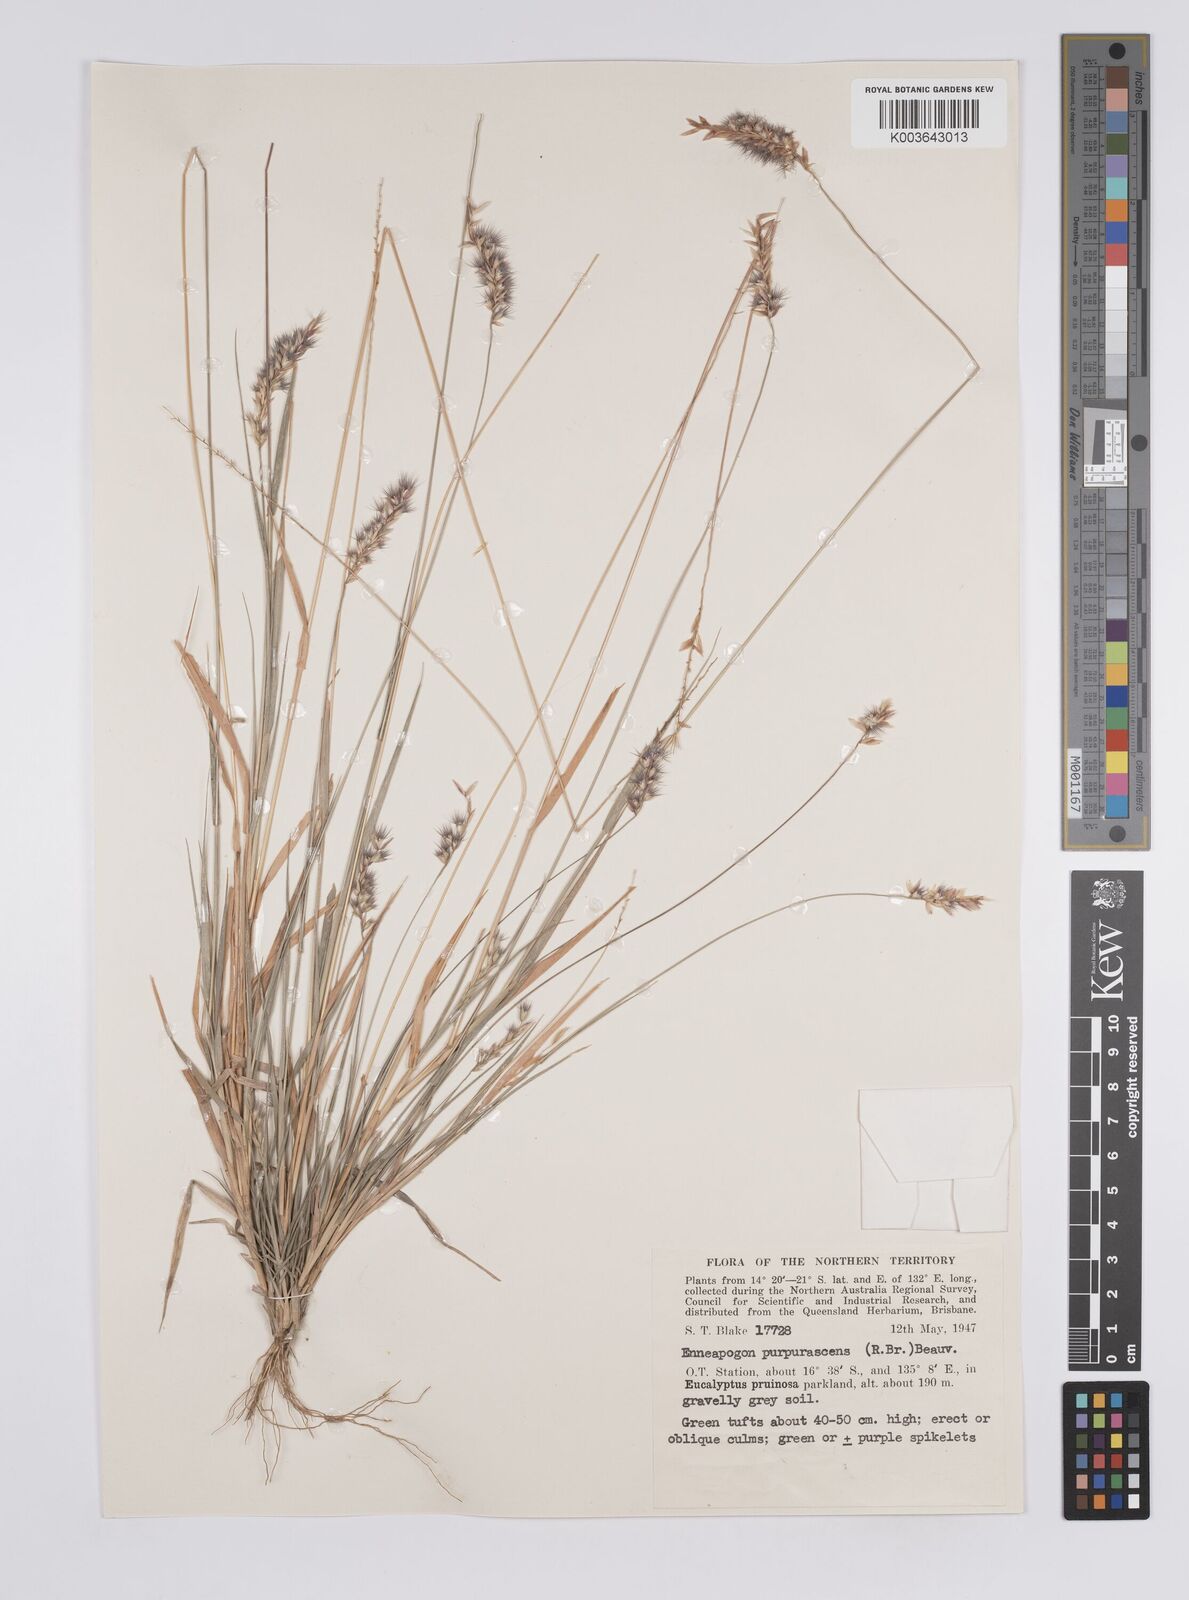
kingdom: Plantae
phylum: Tracheophyta
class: Liliopsida
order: Poales
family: Poaceae
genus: Enneapogon
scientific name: Enneapogon purpurascens
